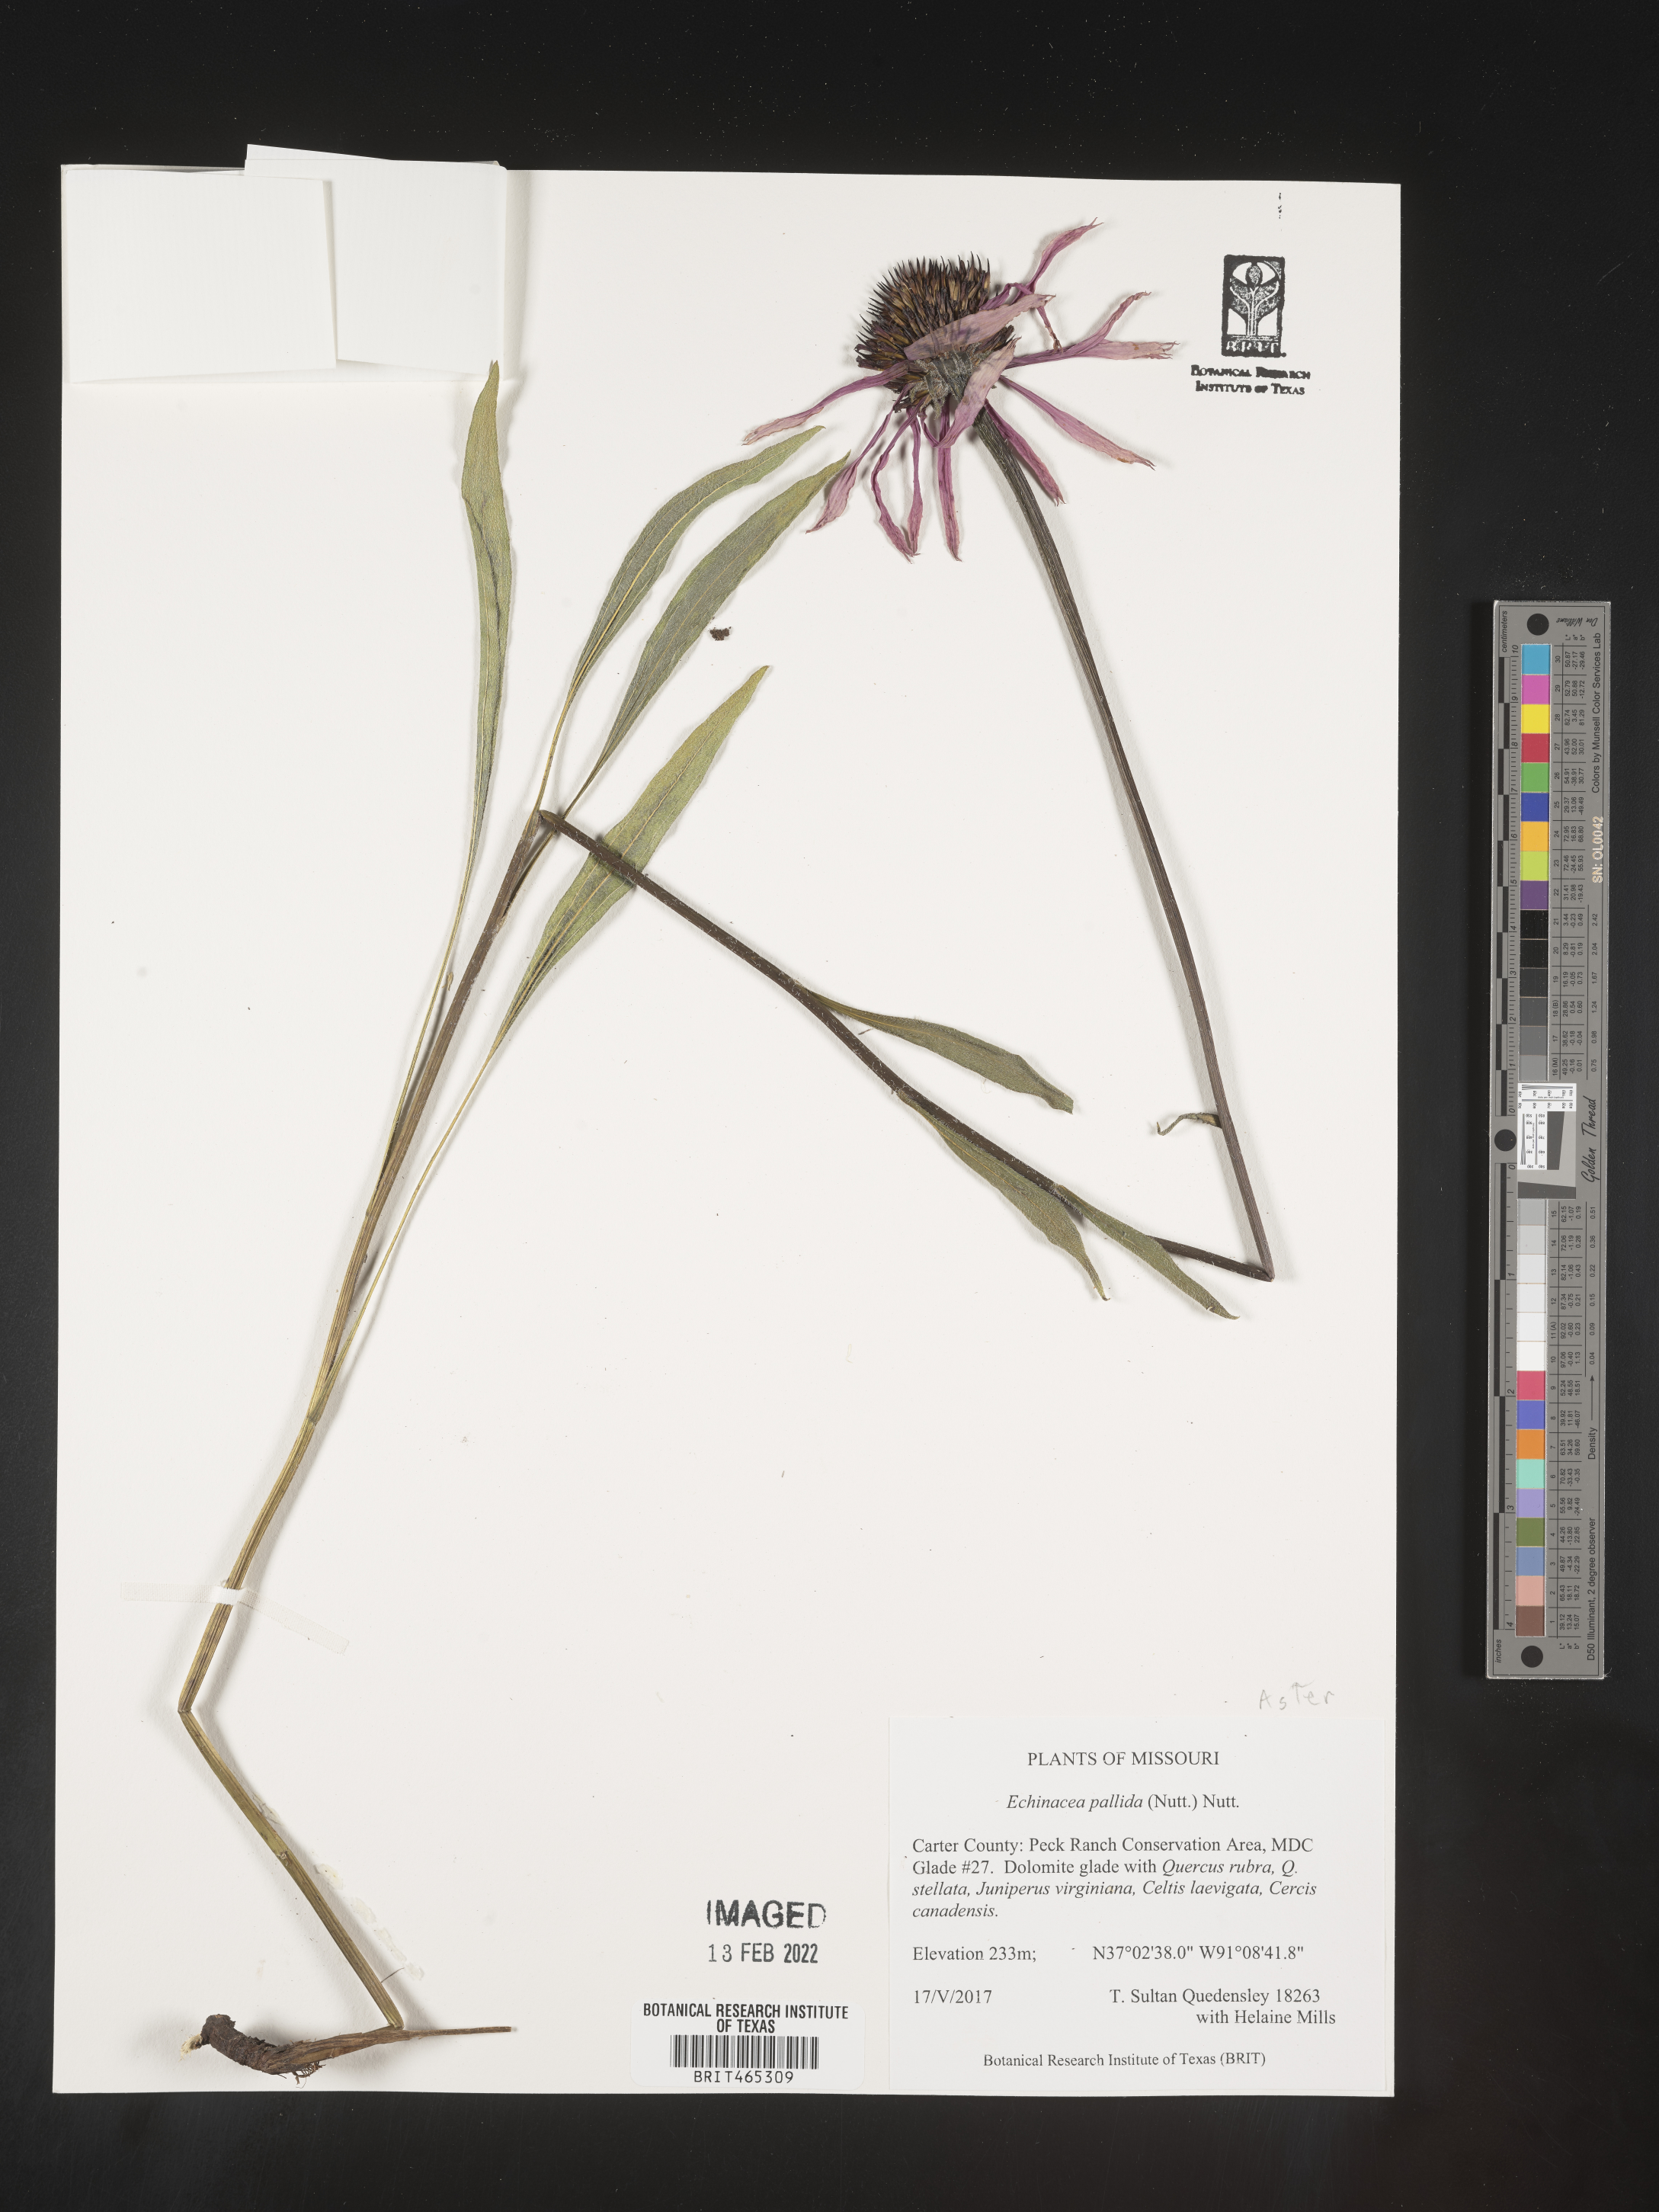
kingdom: Plantae
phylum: Tracheophyta
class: Magnoliopsida
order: Asterales
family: Asteraceae
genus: Echinacea
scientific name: Echinacea pallida
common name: Pale echinacea
